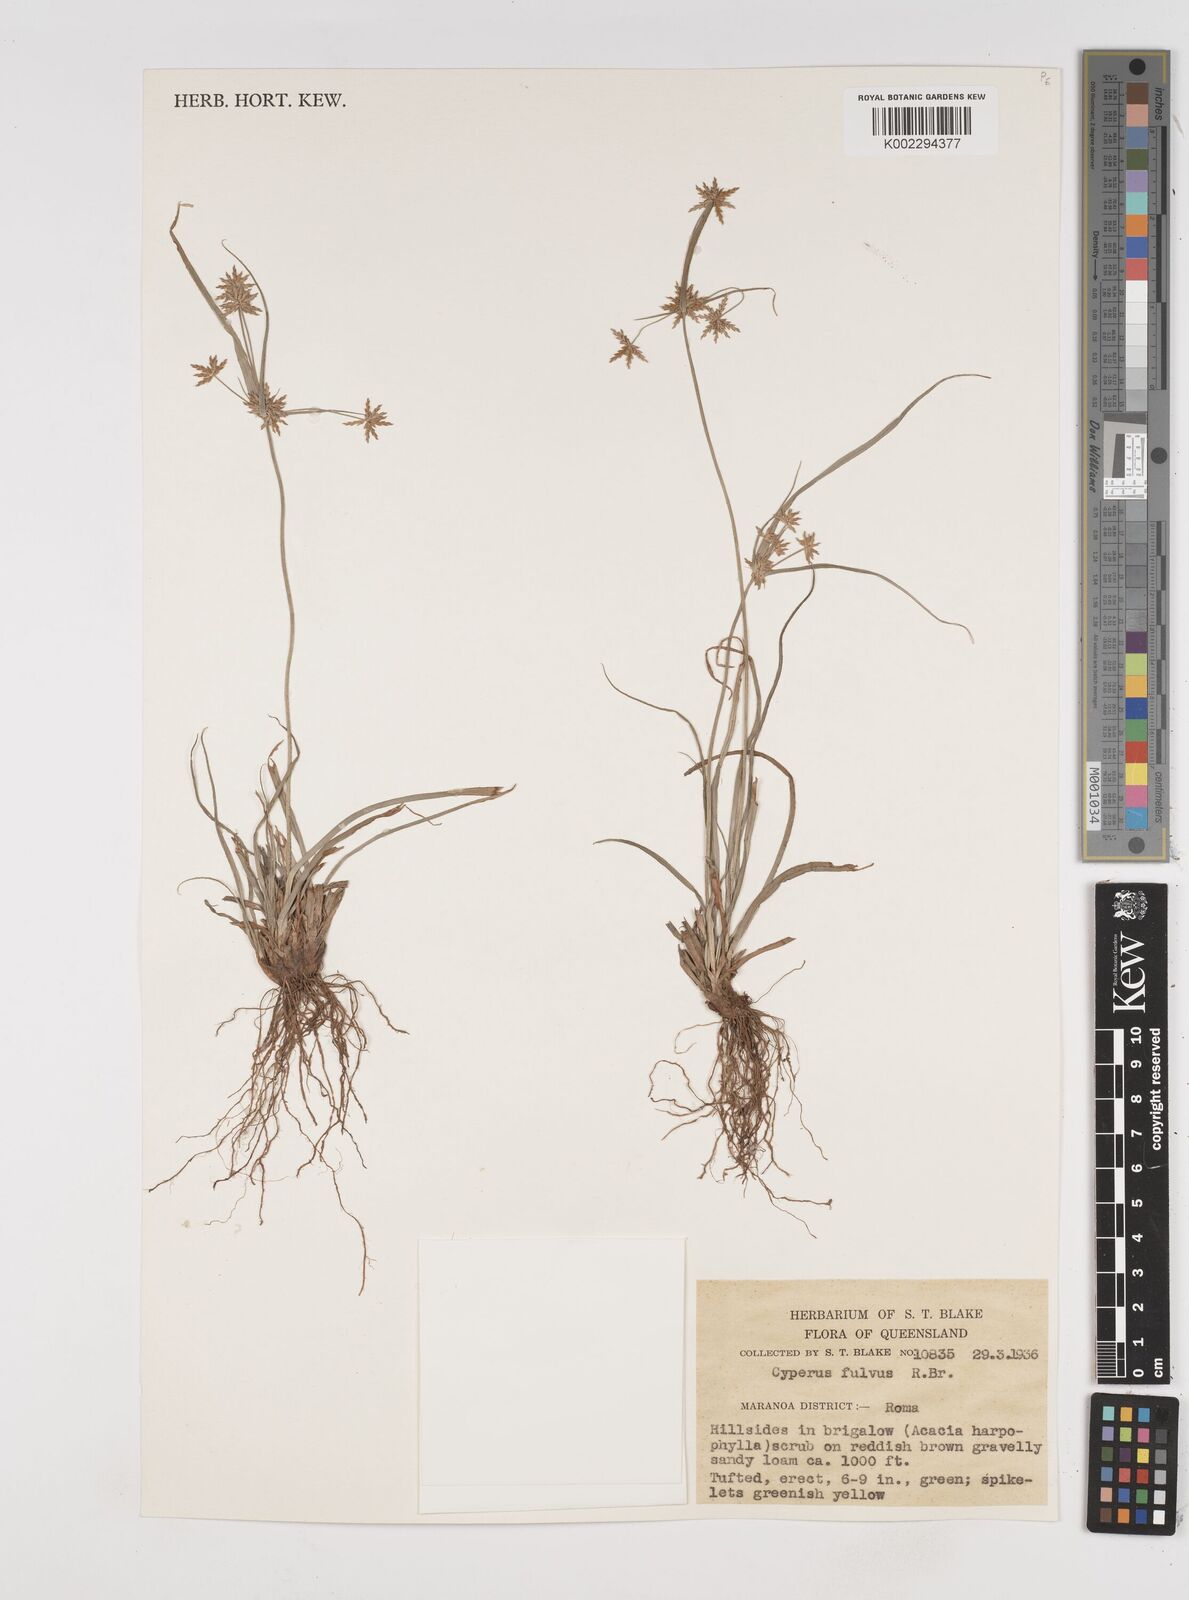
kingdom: Plantae
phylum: Tracheophyta
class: Liliopsida
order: Poales
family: Cyperaceae
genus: Cyperus
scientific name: Cyperus fulvus
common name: Sticky sedge
